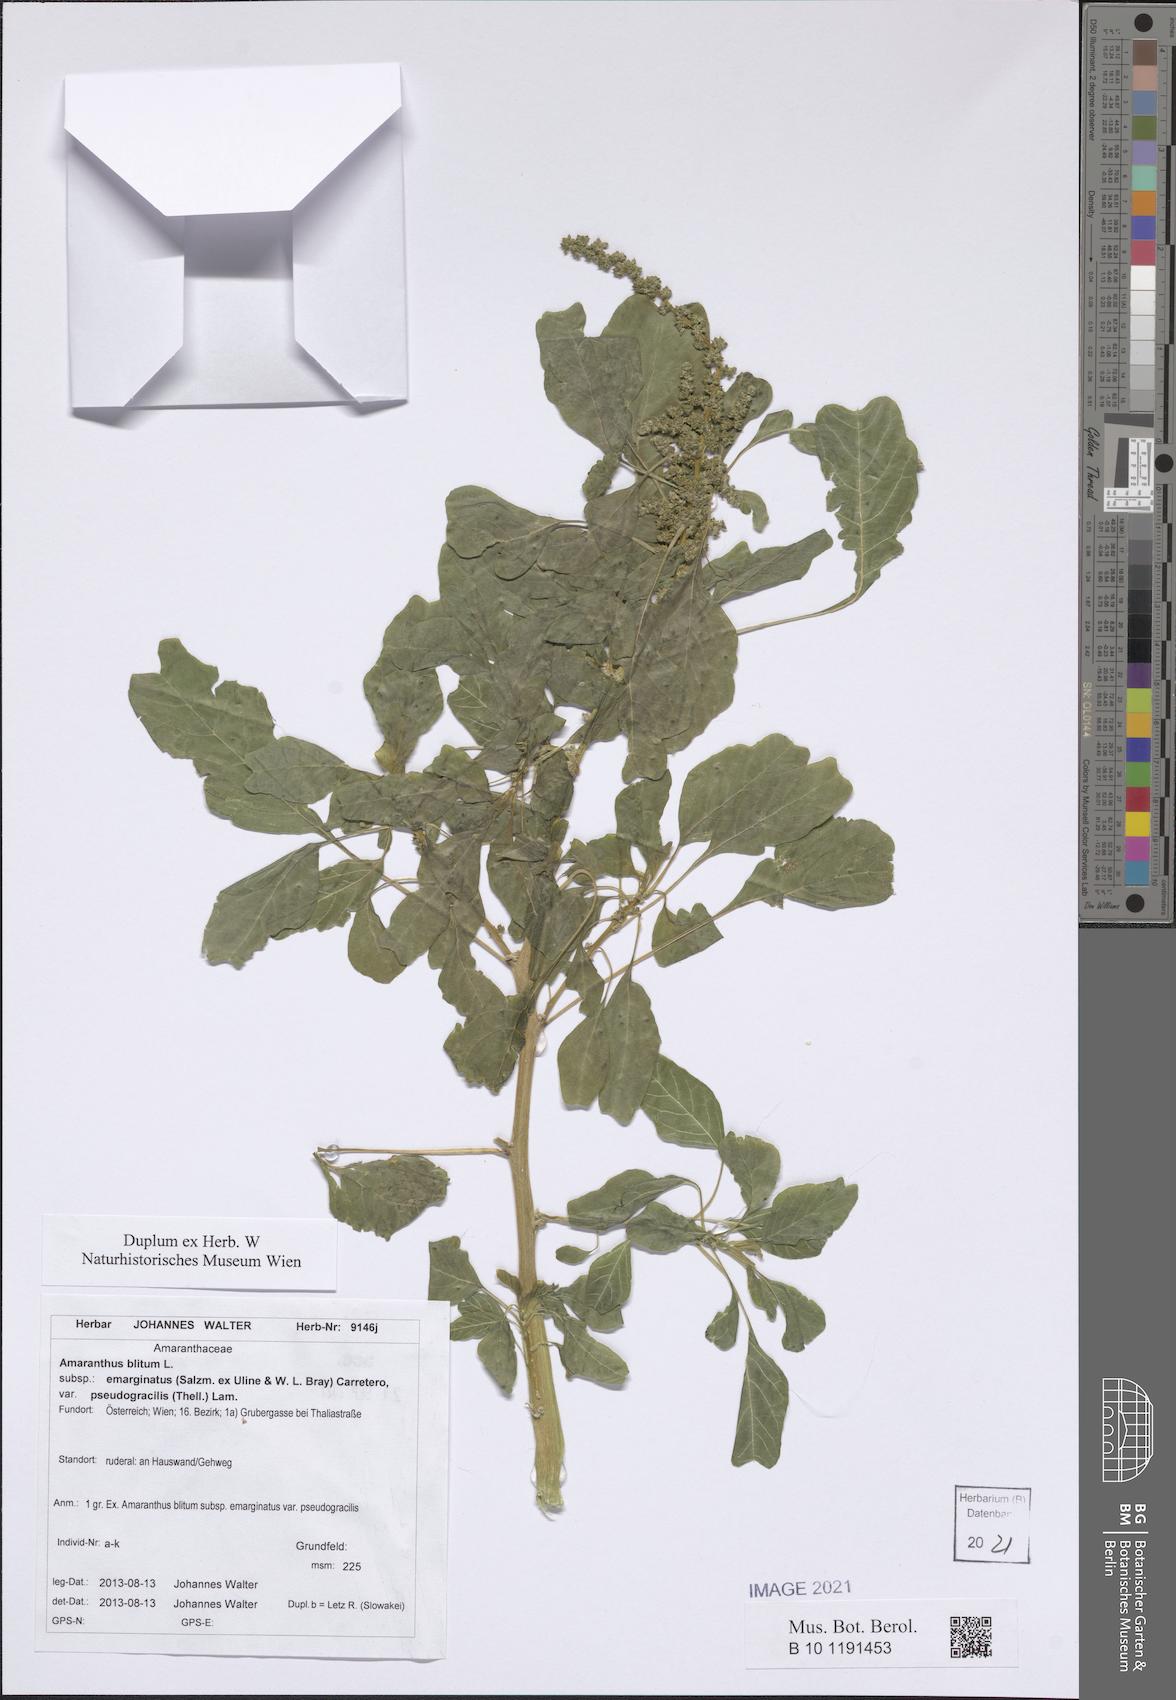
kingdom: Plantae
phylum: Tracheophyta
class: Magnoliopsida
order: Caryophyllales
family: Amaranthaceae
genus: Amaranthus
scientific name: Amaranthus emarginatus
